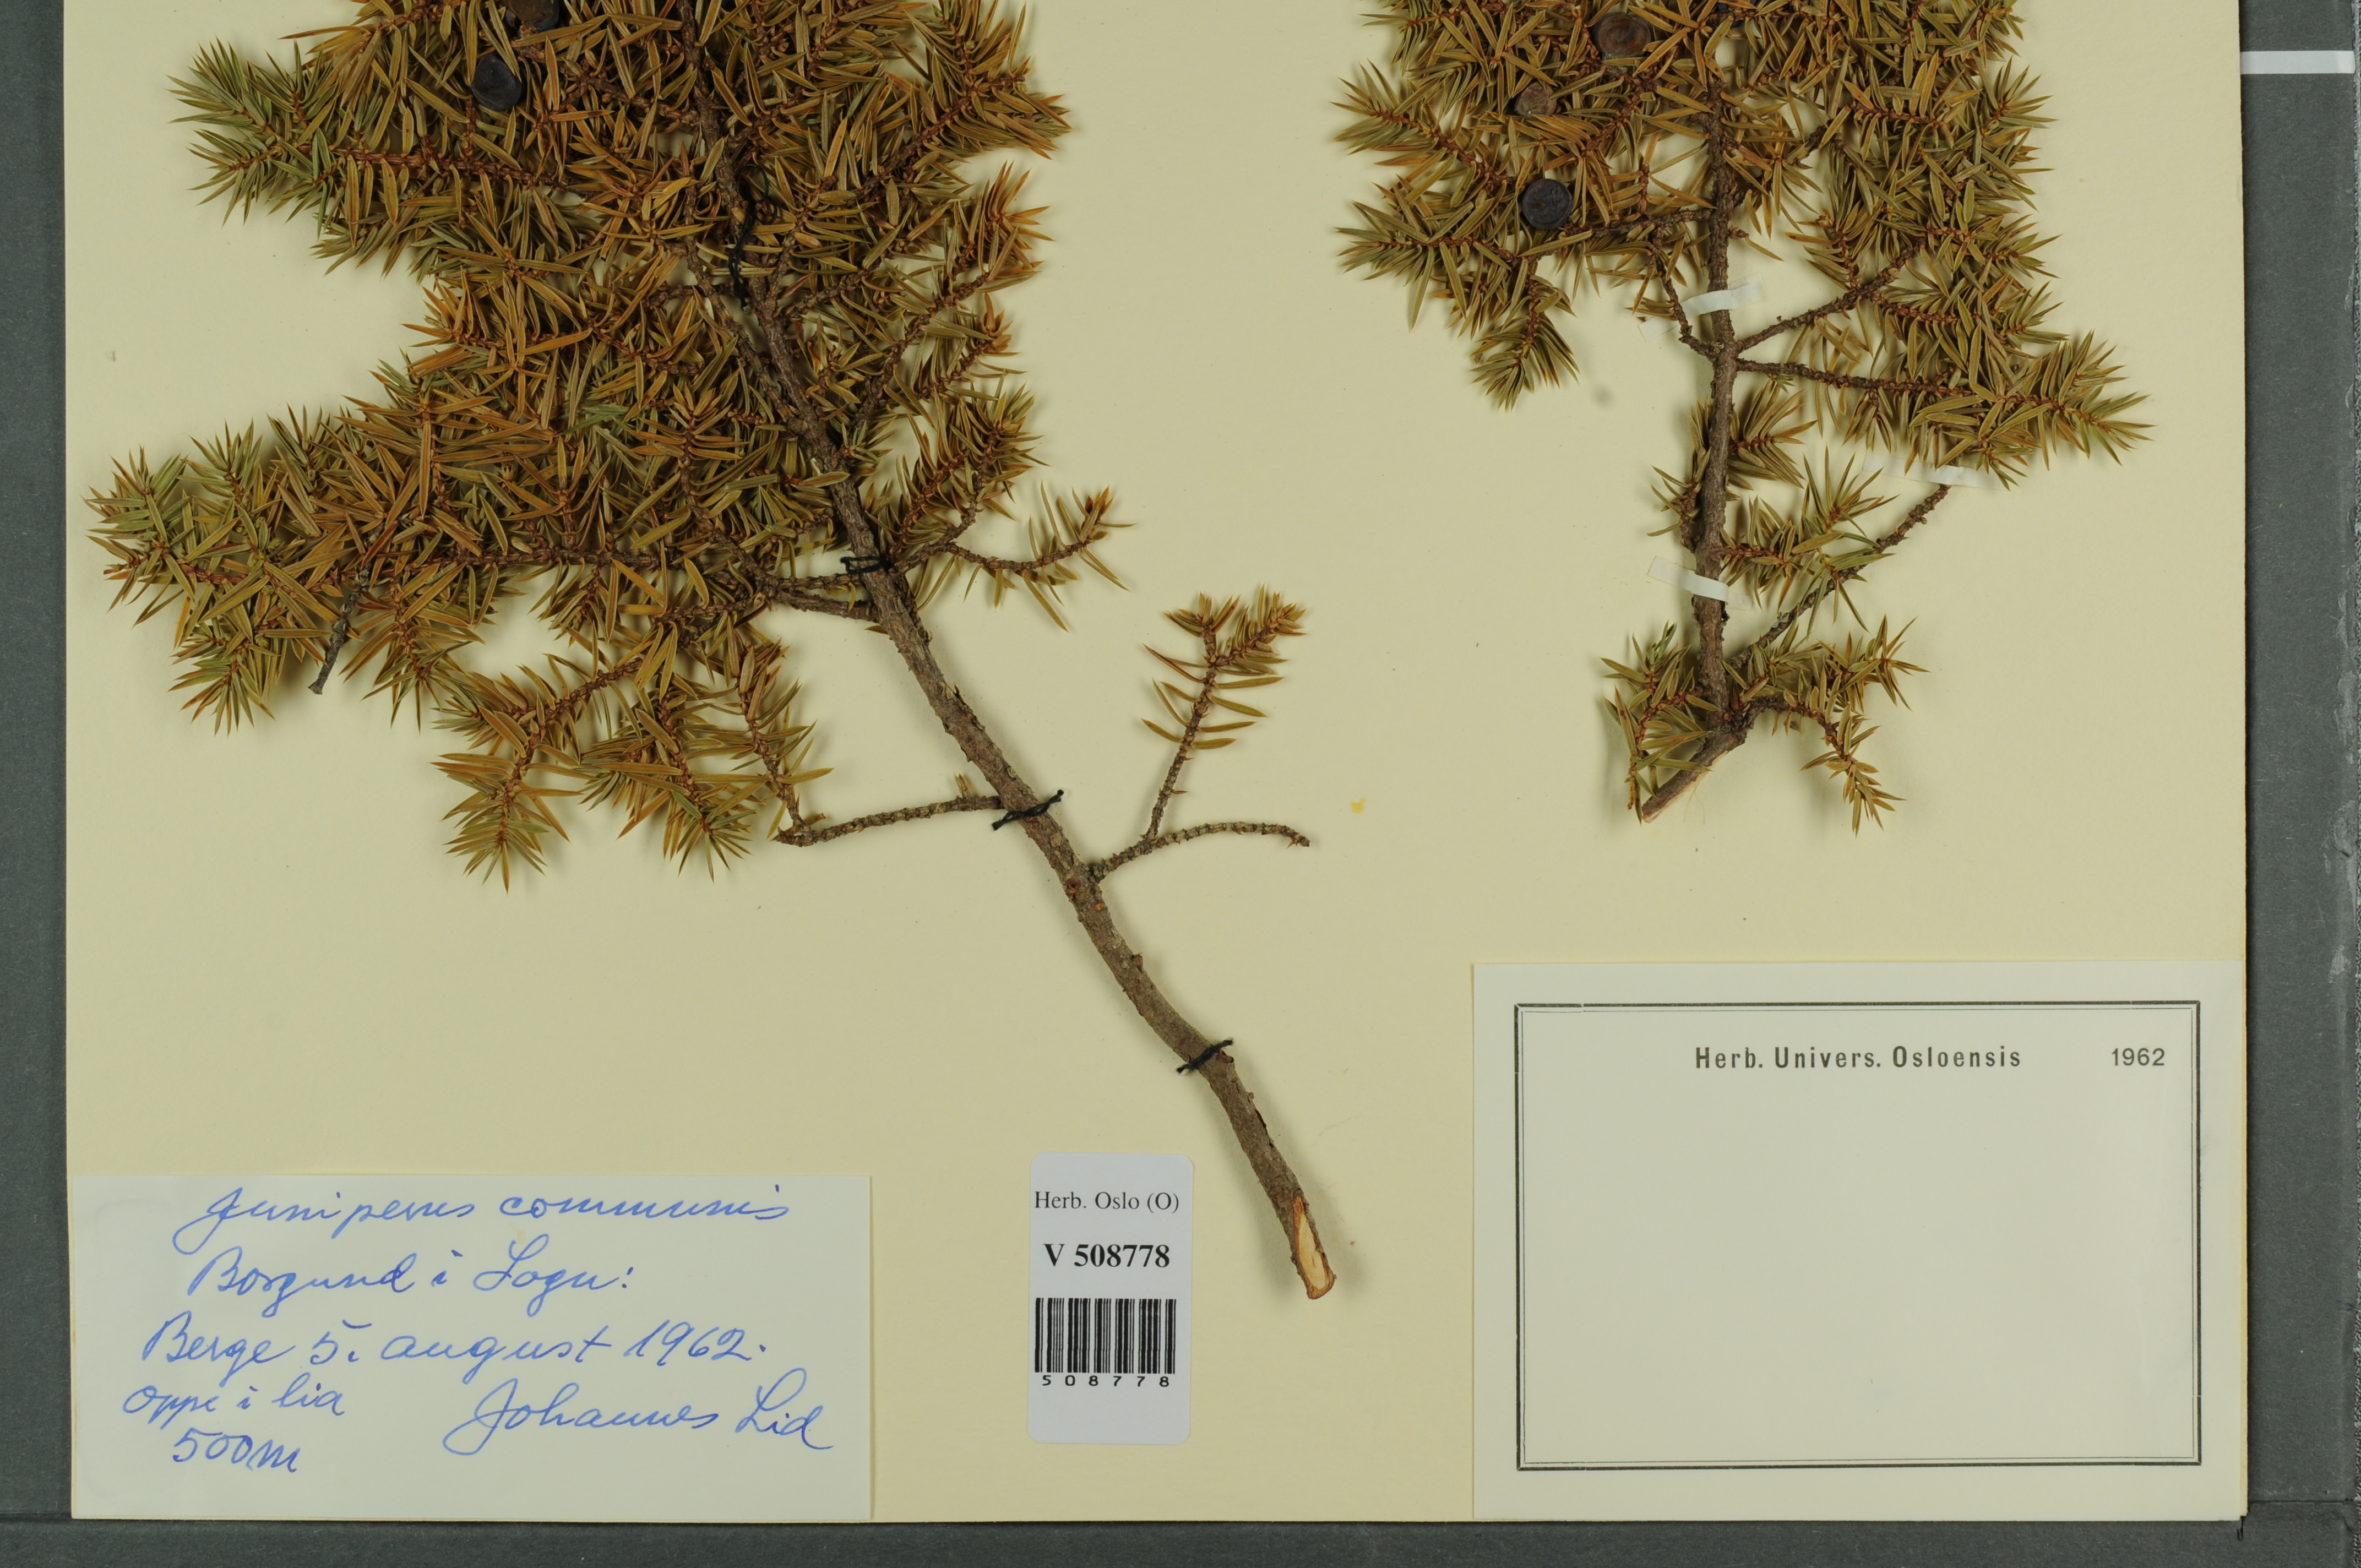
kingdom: Plantae
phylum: Tracheophyta
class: Pinopsida
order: Pinales
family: Cupressaceae
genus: Juniperus
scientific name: Juniperus communis
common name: Common juniper
